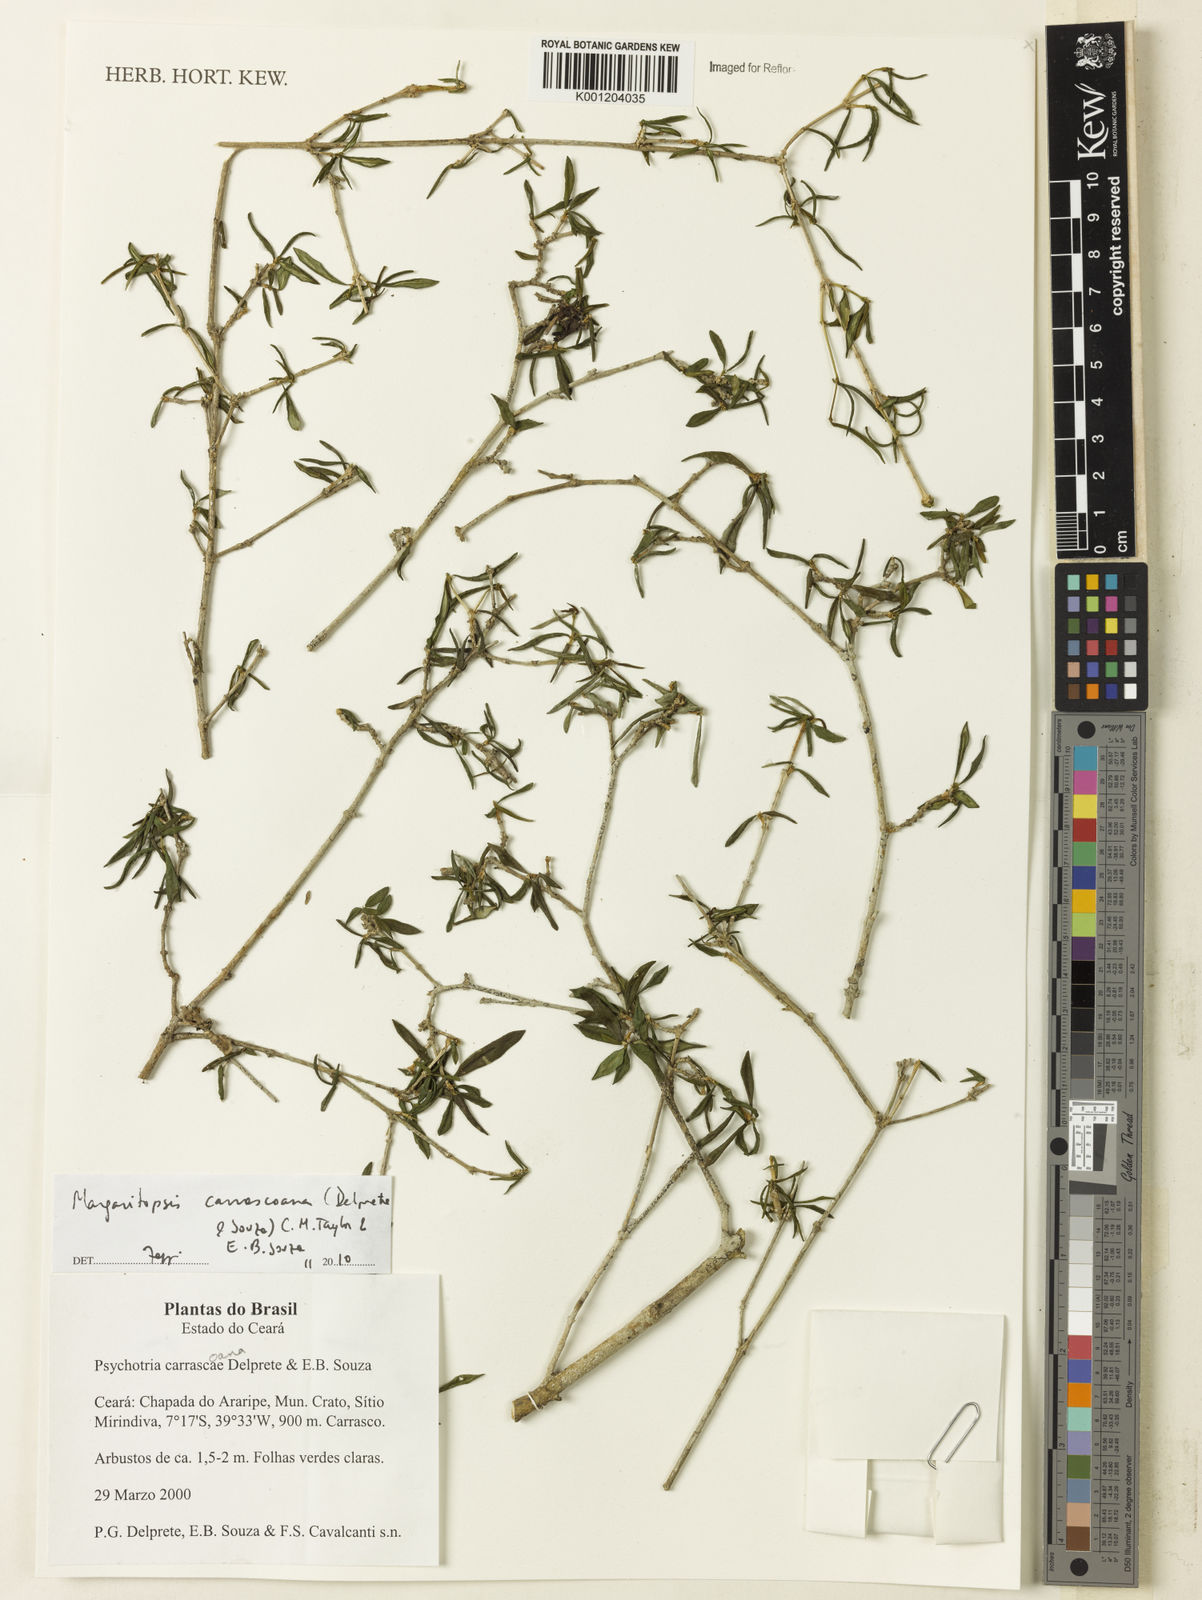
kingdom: Plantae
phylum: Tracheophyta
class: Magnoliopsida
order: Gentianales
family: Rubiaceae
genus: Eumachia
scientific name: Eumachia depauperata
